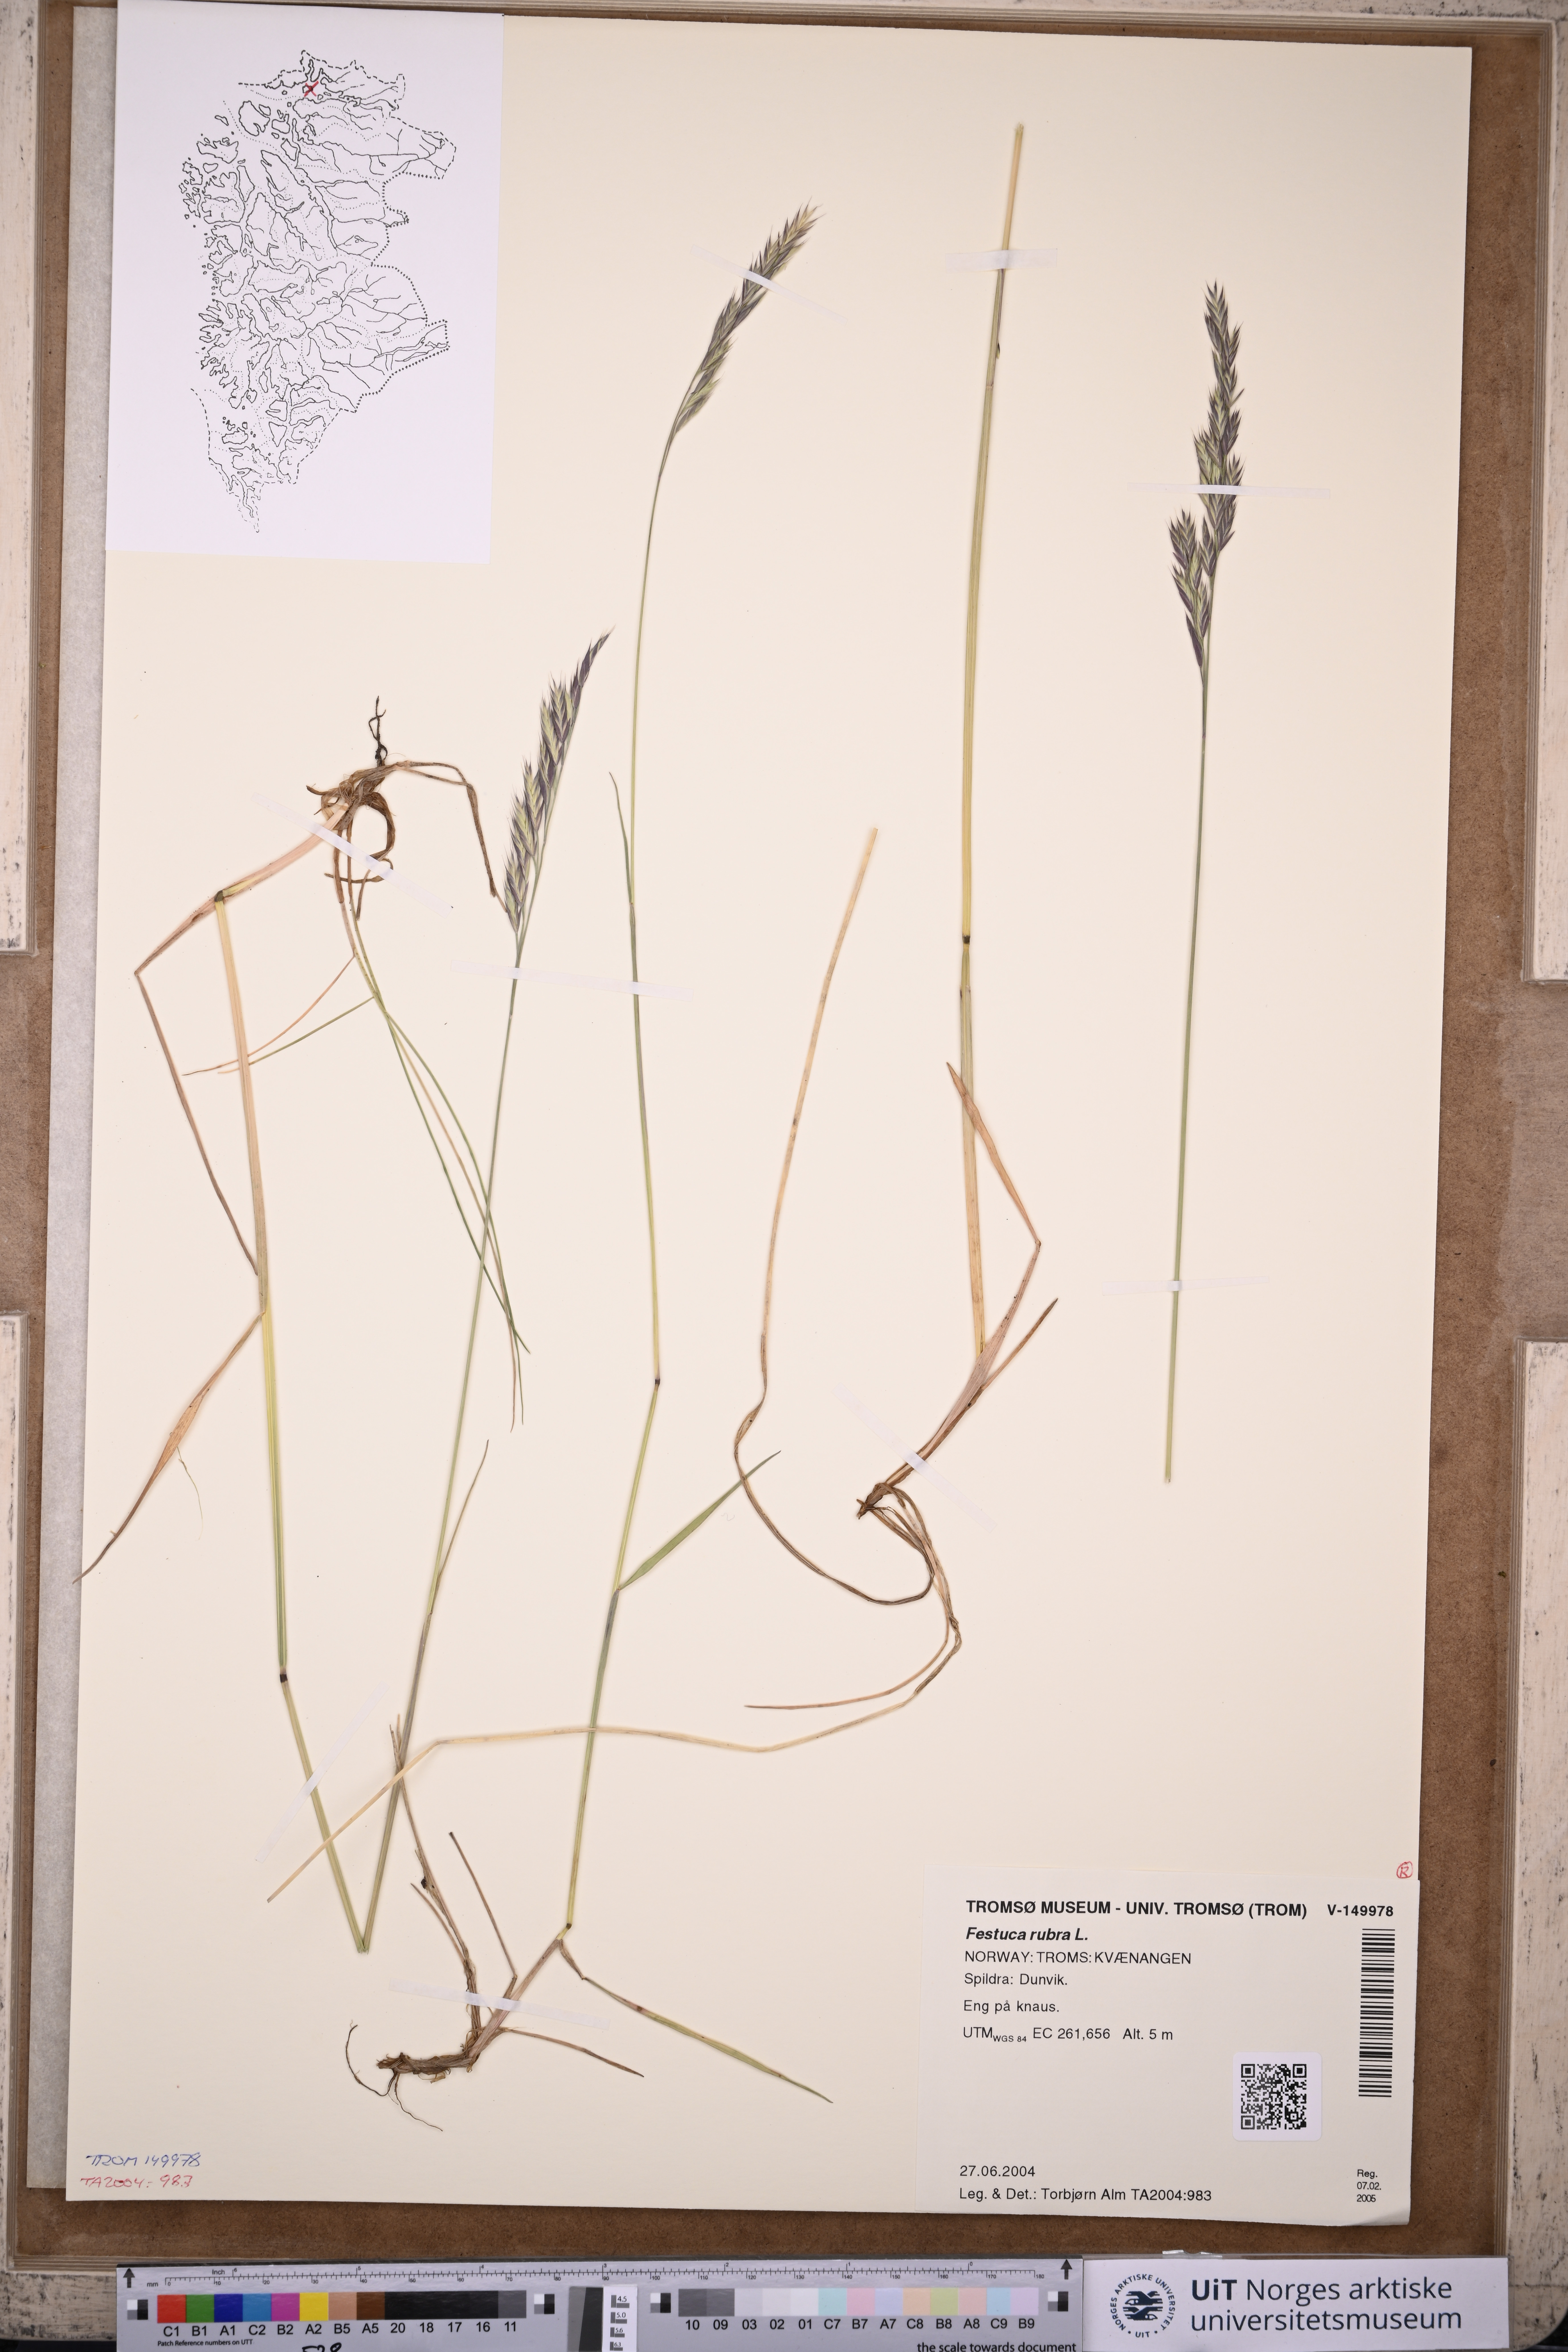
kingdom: Plantae
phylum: Tracheophyta
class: Liliopsida
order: Poales
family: Poaceae
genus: Festuca
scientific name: Festuca rubra
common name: Red fescue
